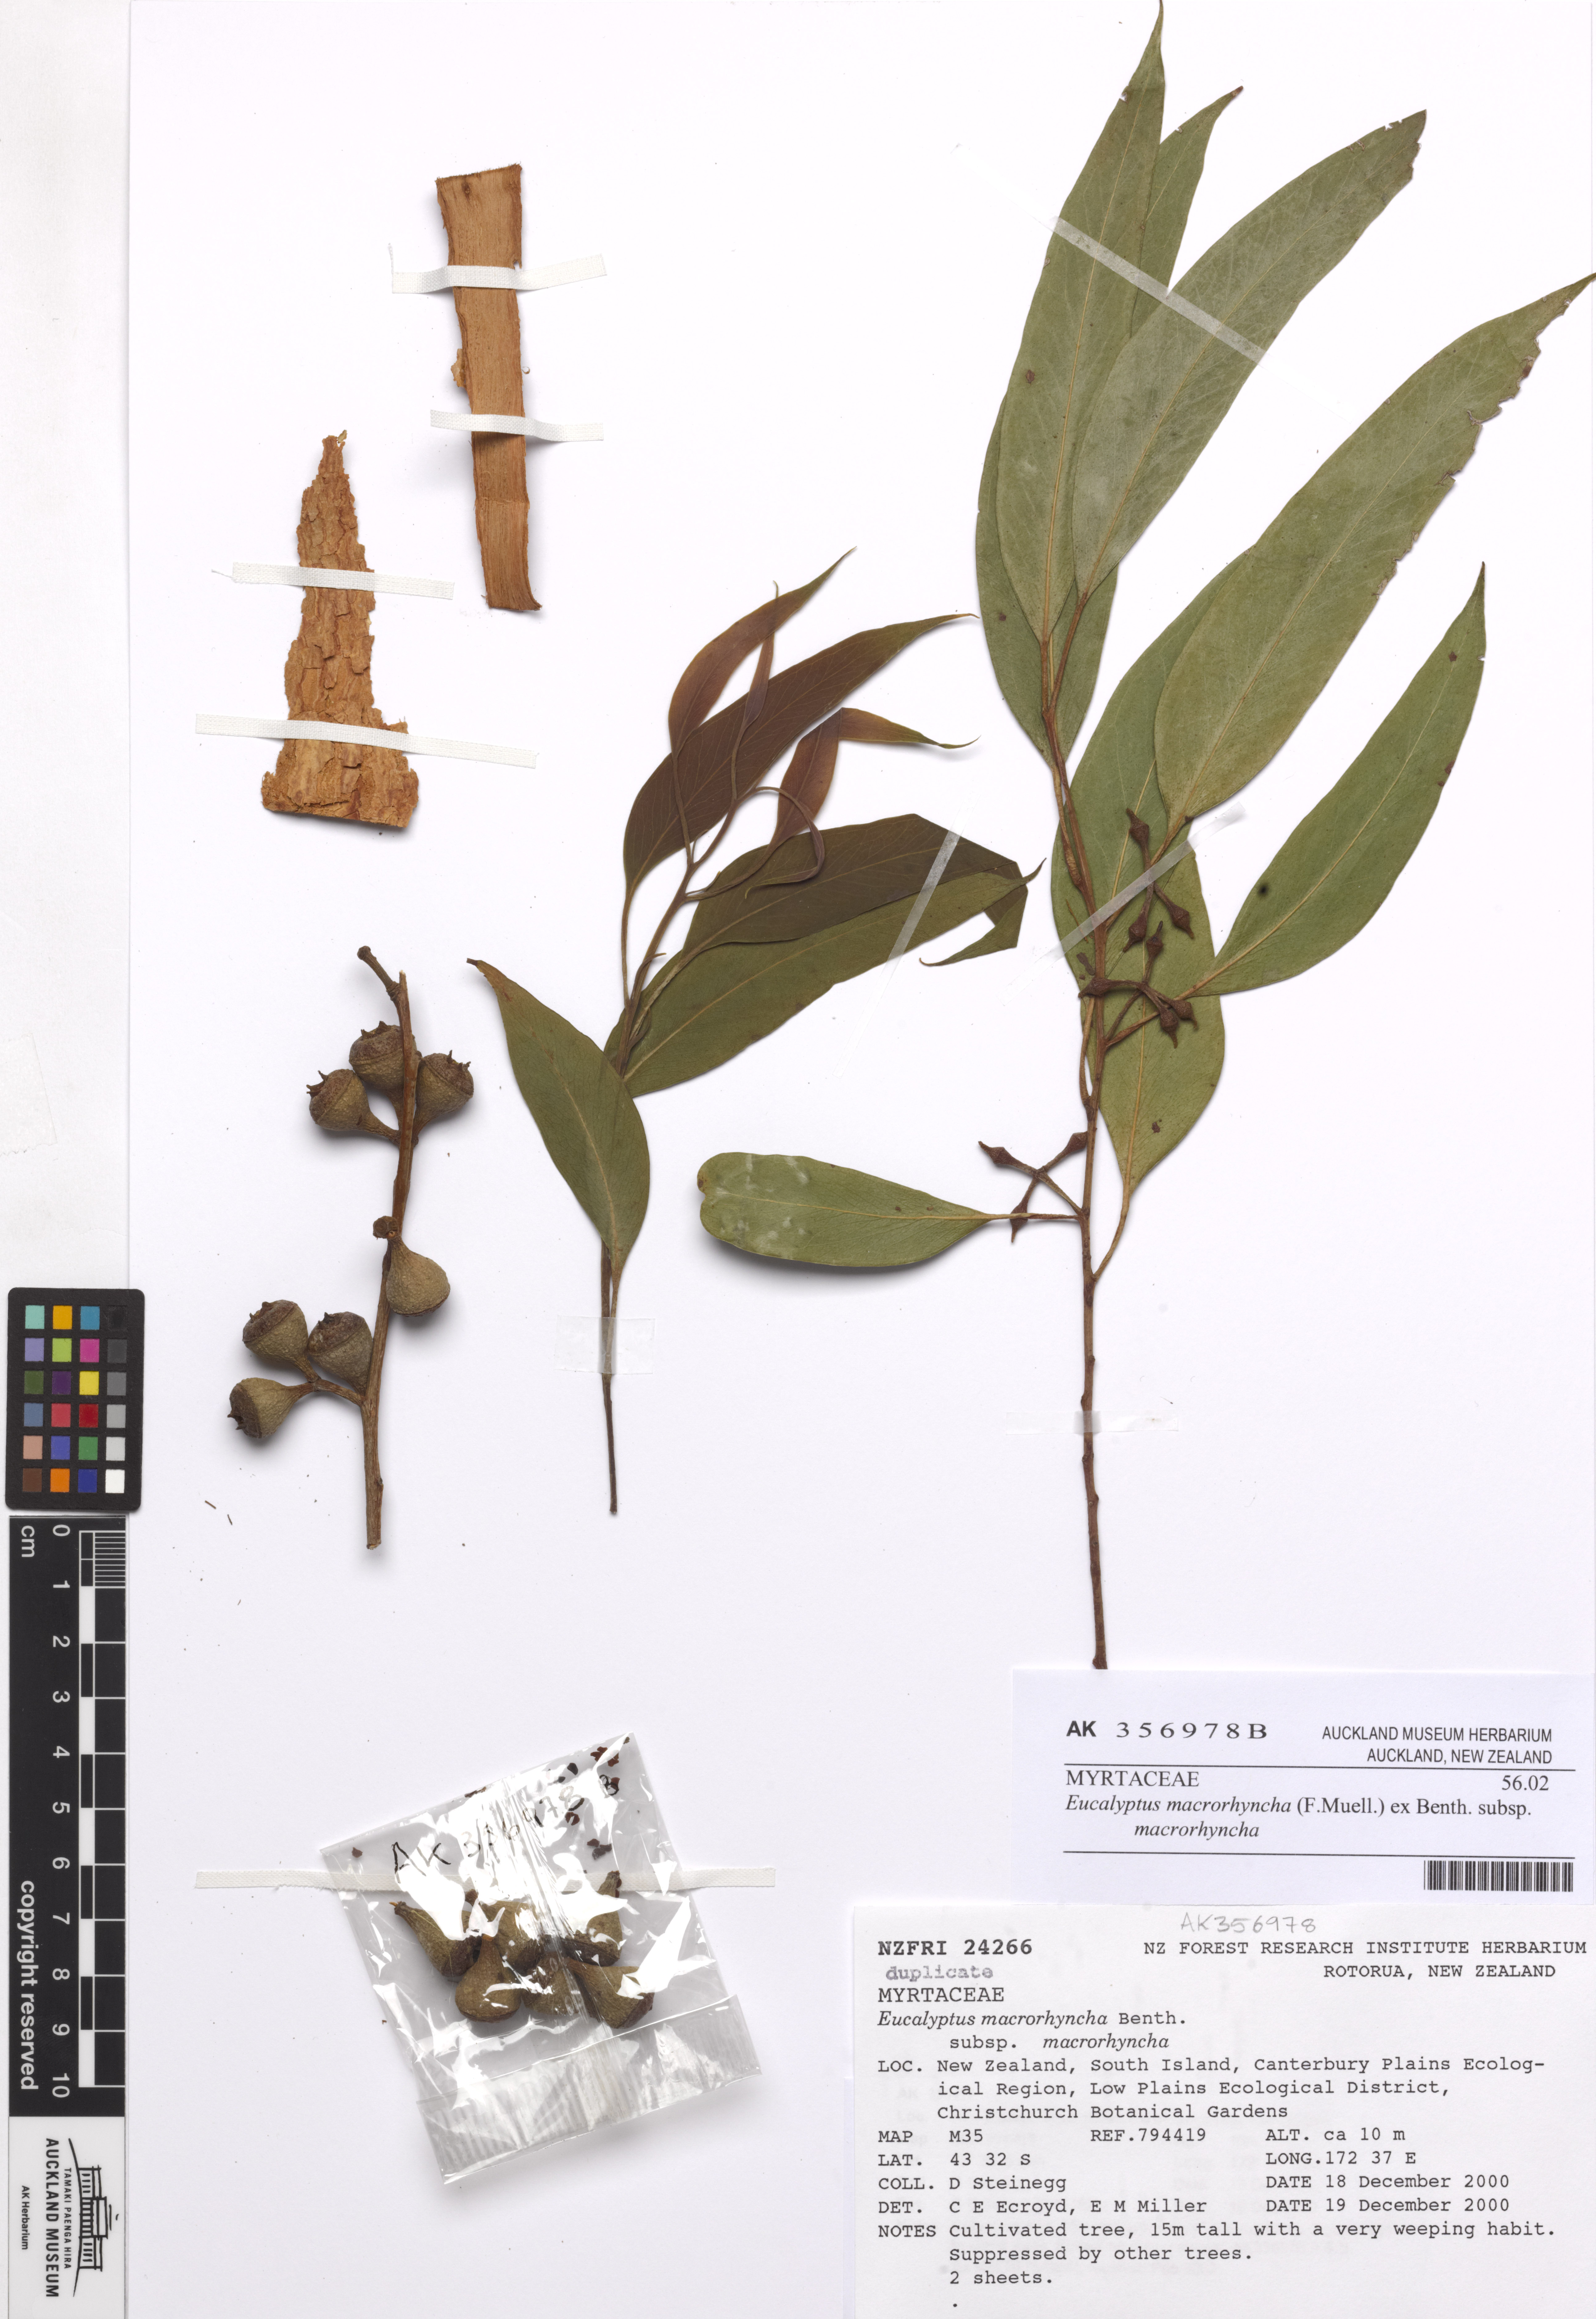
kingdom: Plantae
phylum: Tracheophyta
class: Magnoliopsida
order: Myrtales
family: Myrtaceae
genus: Eucalyptus
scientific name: Eucalyptus macrorhyncha
